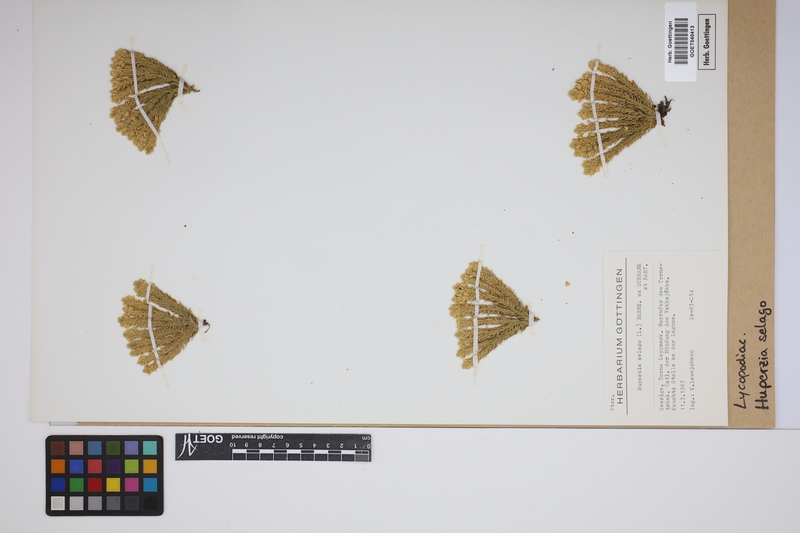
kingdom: Plantae
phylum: Tracheophyta
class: Lycopodiopsida
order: Lycopodiales
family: Lycopodiaceae
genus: Huperzia
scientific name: Huperzia selago
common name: Northern firmoss
